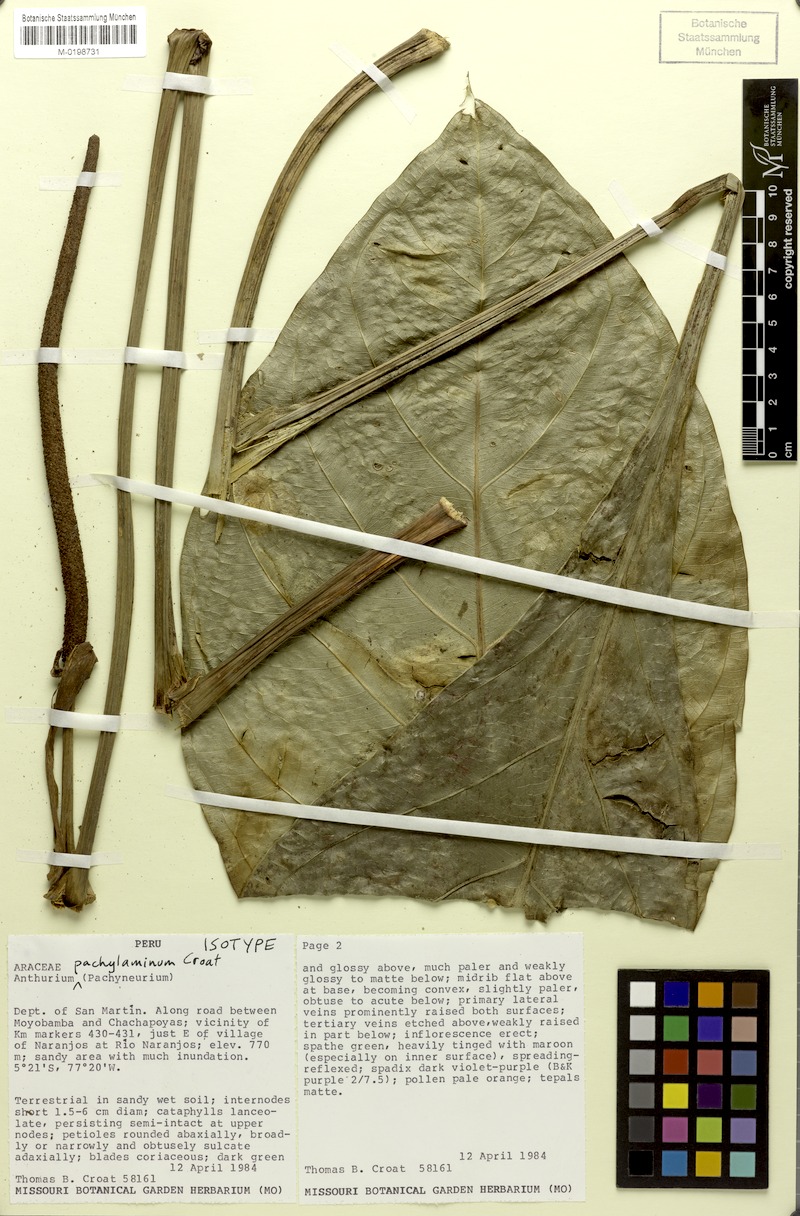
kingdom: Plantae
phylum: Tracheophyta
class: Liliopsida
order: Alismatales
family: Araceae
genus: Anthurium
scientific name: Anthurium ovatifolium
